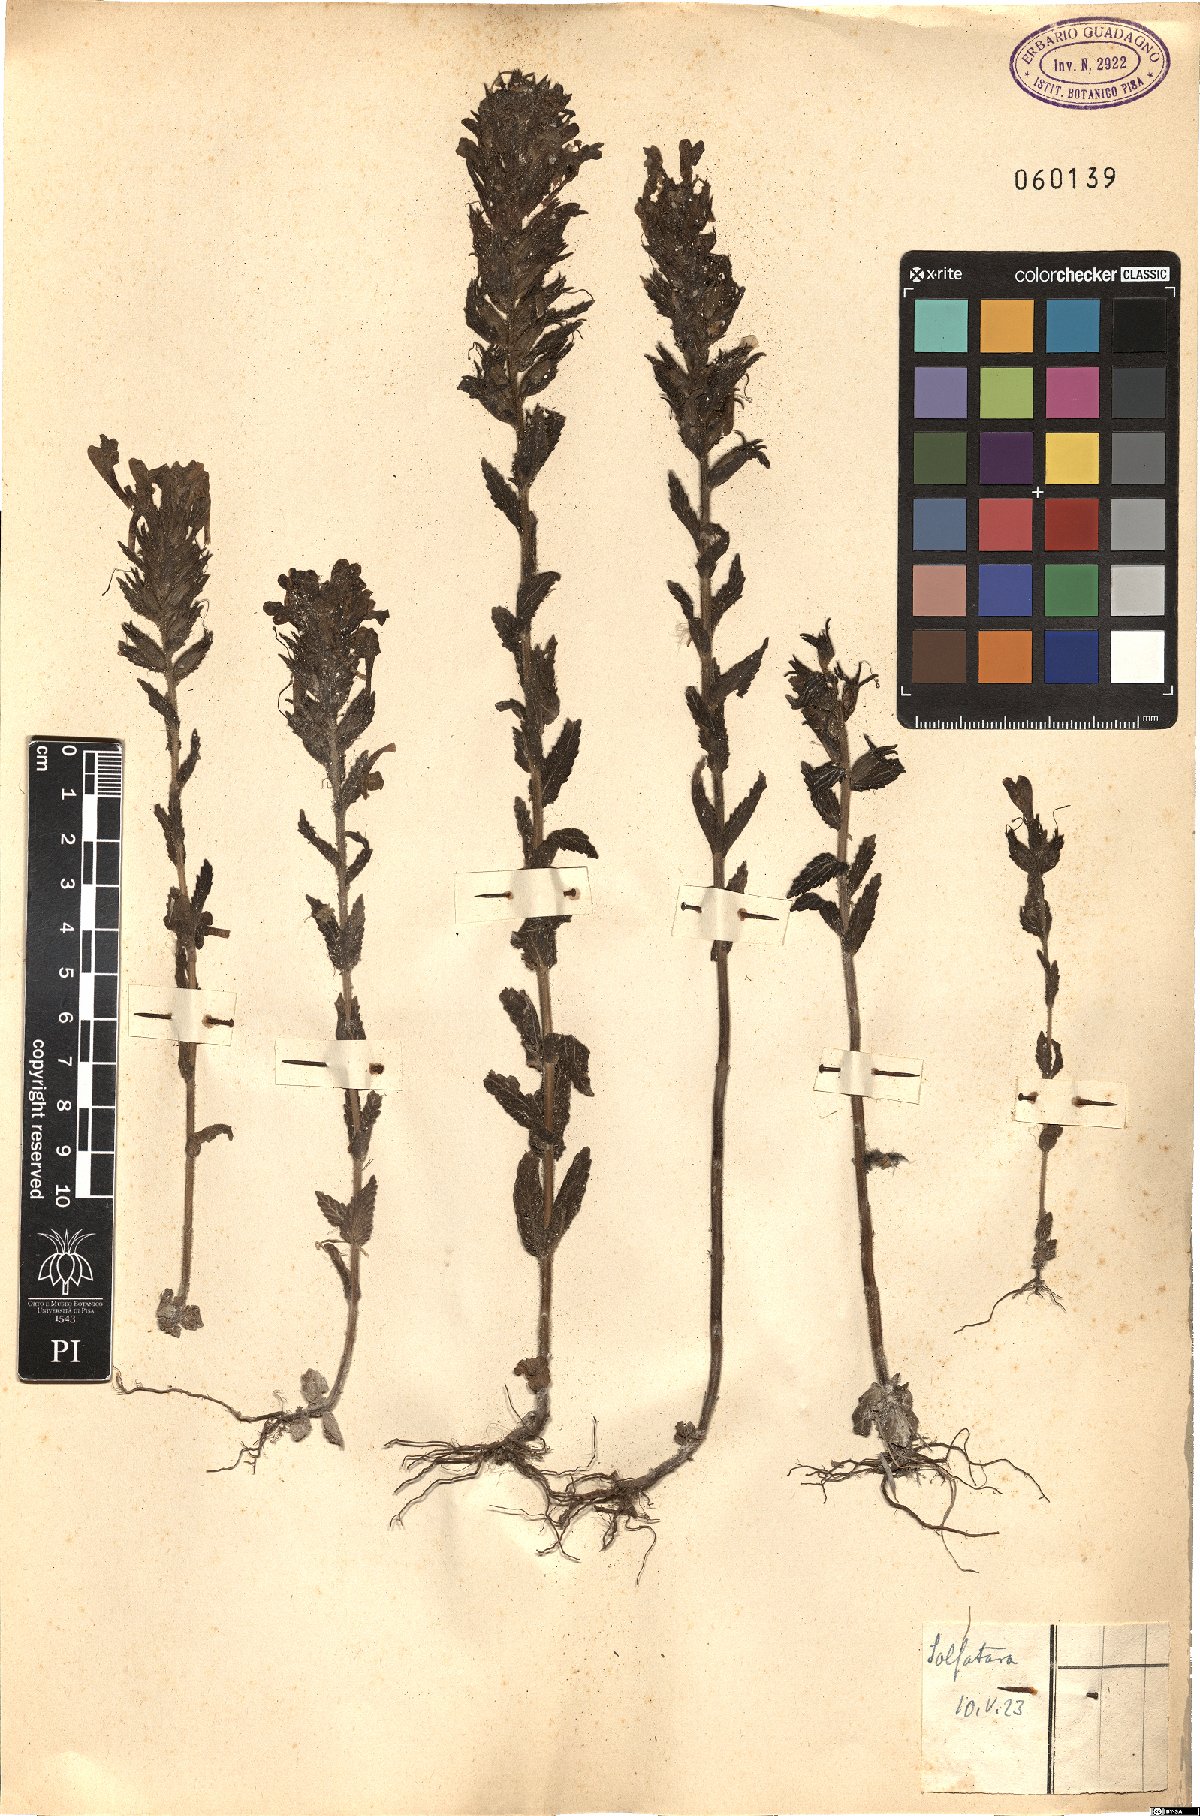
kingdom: Plantae
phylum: Tracheophyta
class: Magnoliopsida
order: Lamiales
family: Orobanchaceae
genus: Bellardia
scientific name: Bellardia viscosa
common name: Sticky parentucellia
